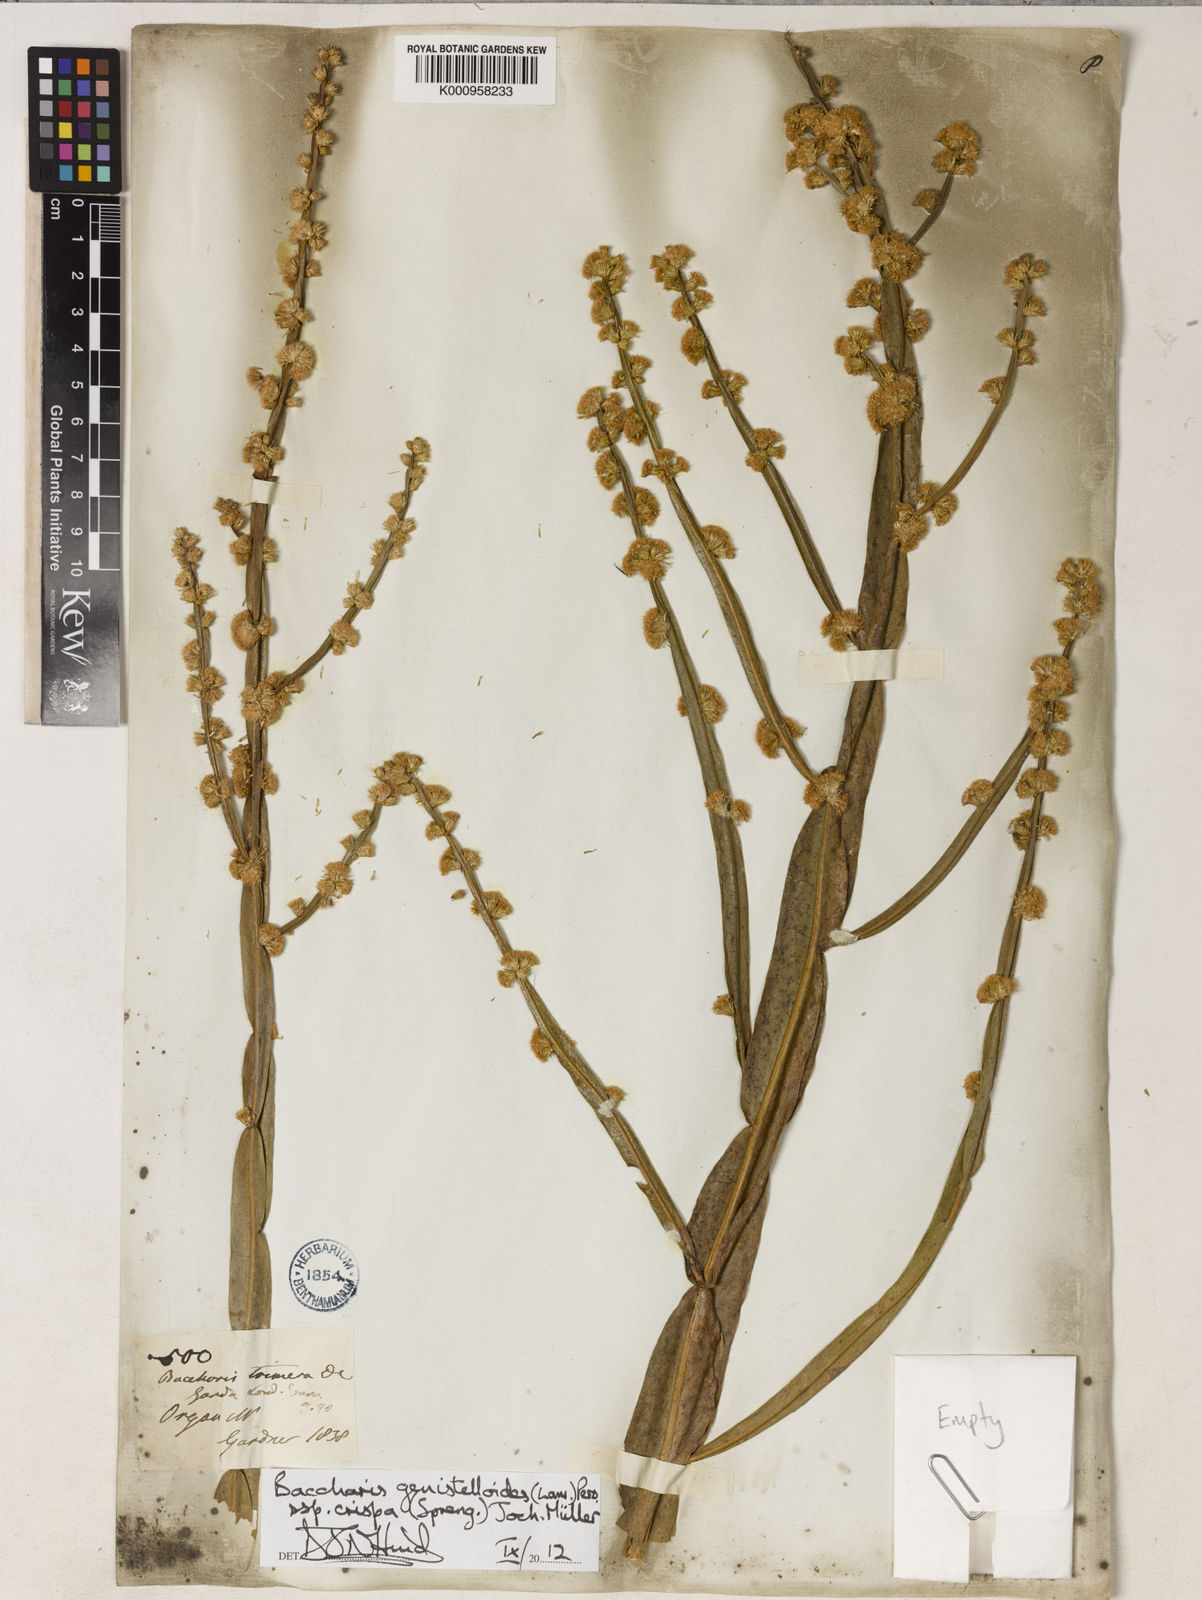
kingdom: Plantae
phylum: Tracheophyta
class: Magnoliopsida
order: Asterales
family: Asteraceae
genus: Baccharis
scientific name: Baccharis genistelloides
